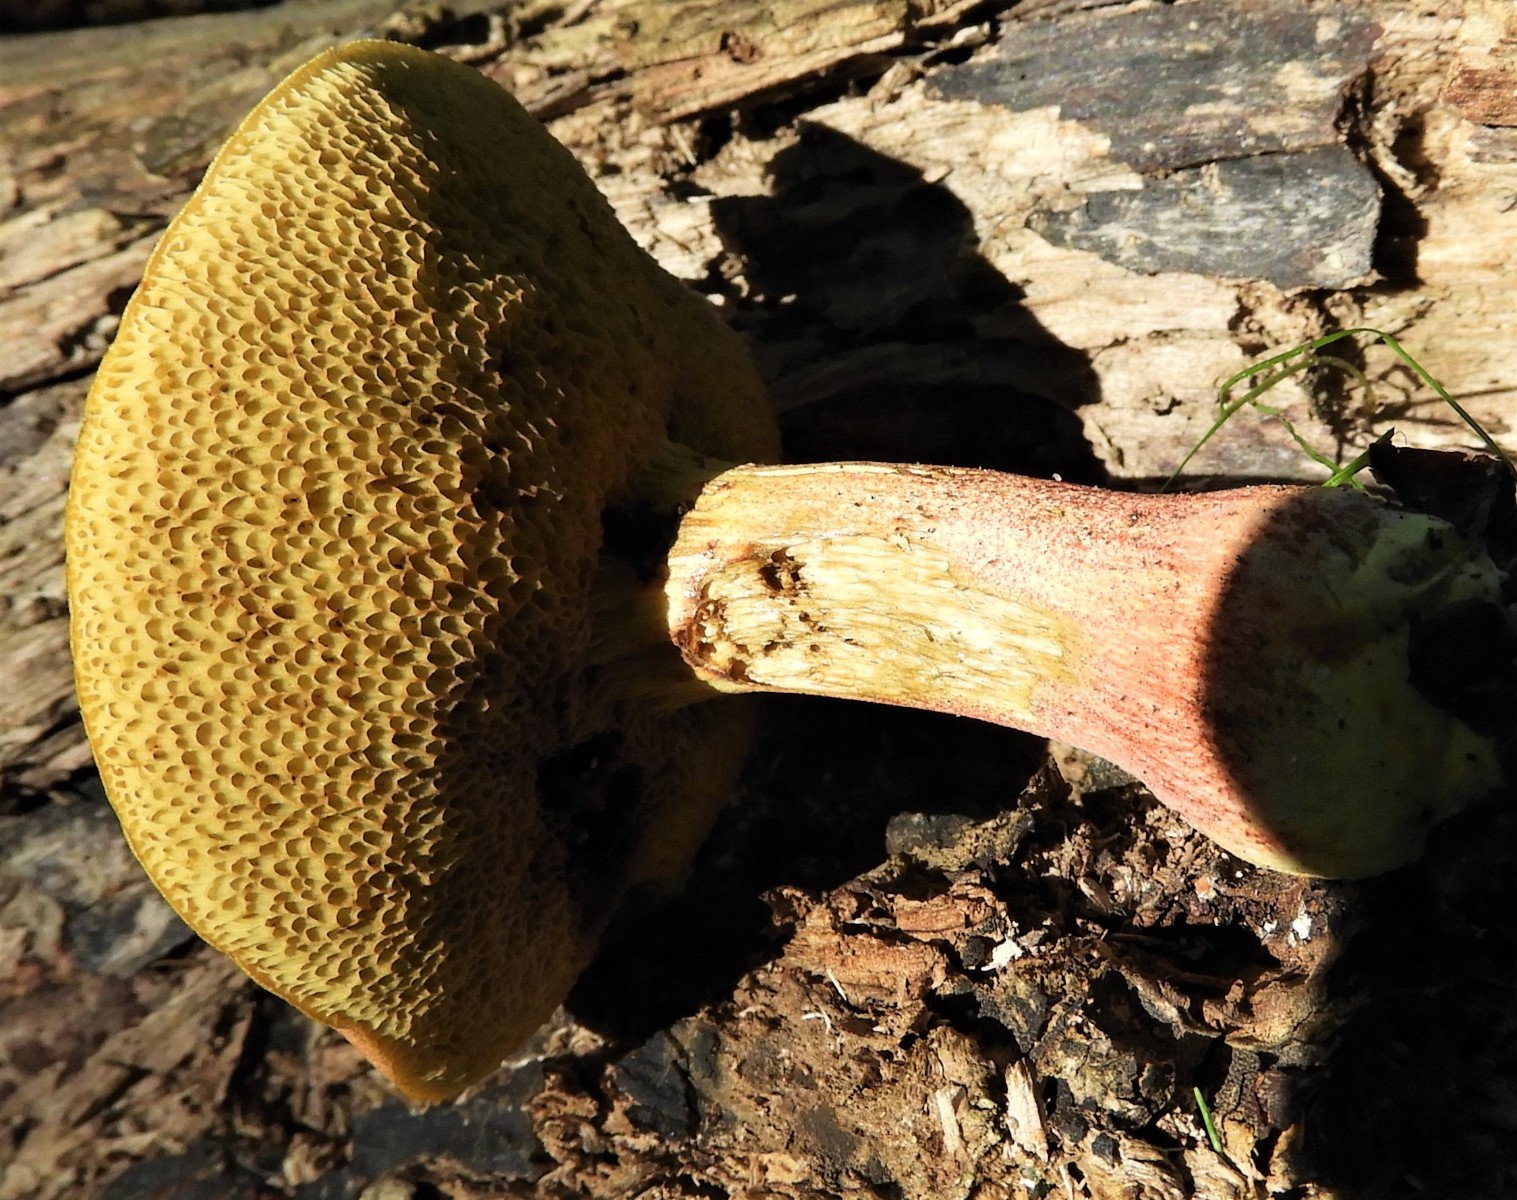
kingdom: Fungi
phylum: Basidiomycota
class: Agaricomycetes
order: Boletales
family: Boletaceae
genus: Hortiboletus
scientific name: Hortiboletus rubellus
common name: blodrød rørhat
